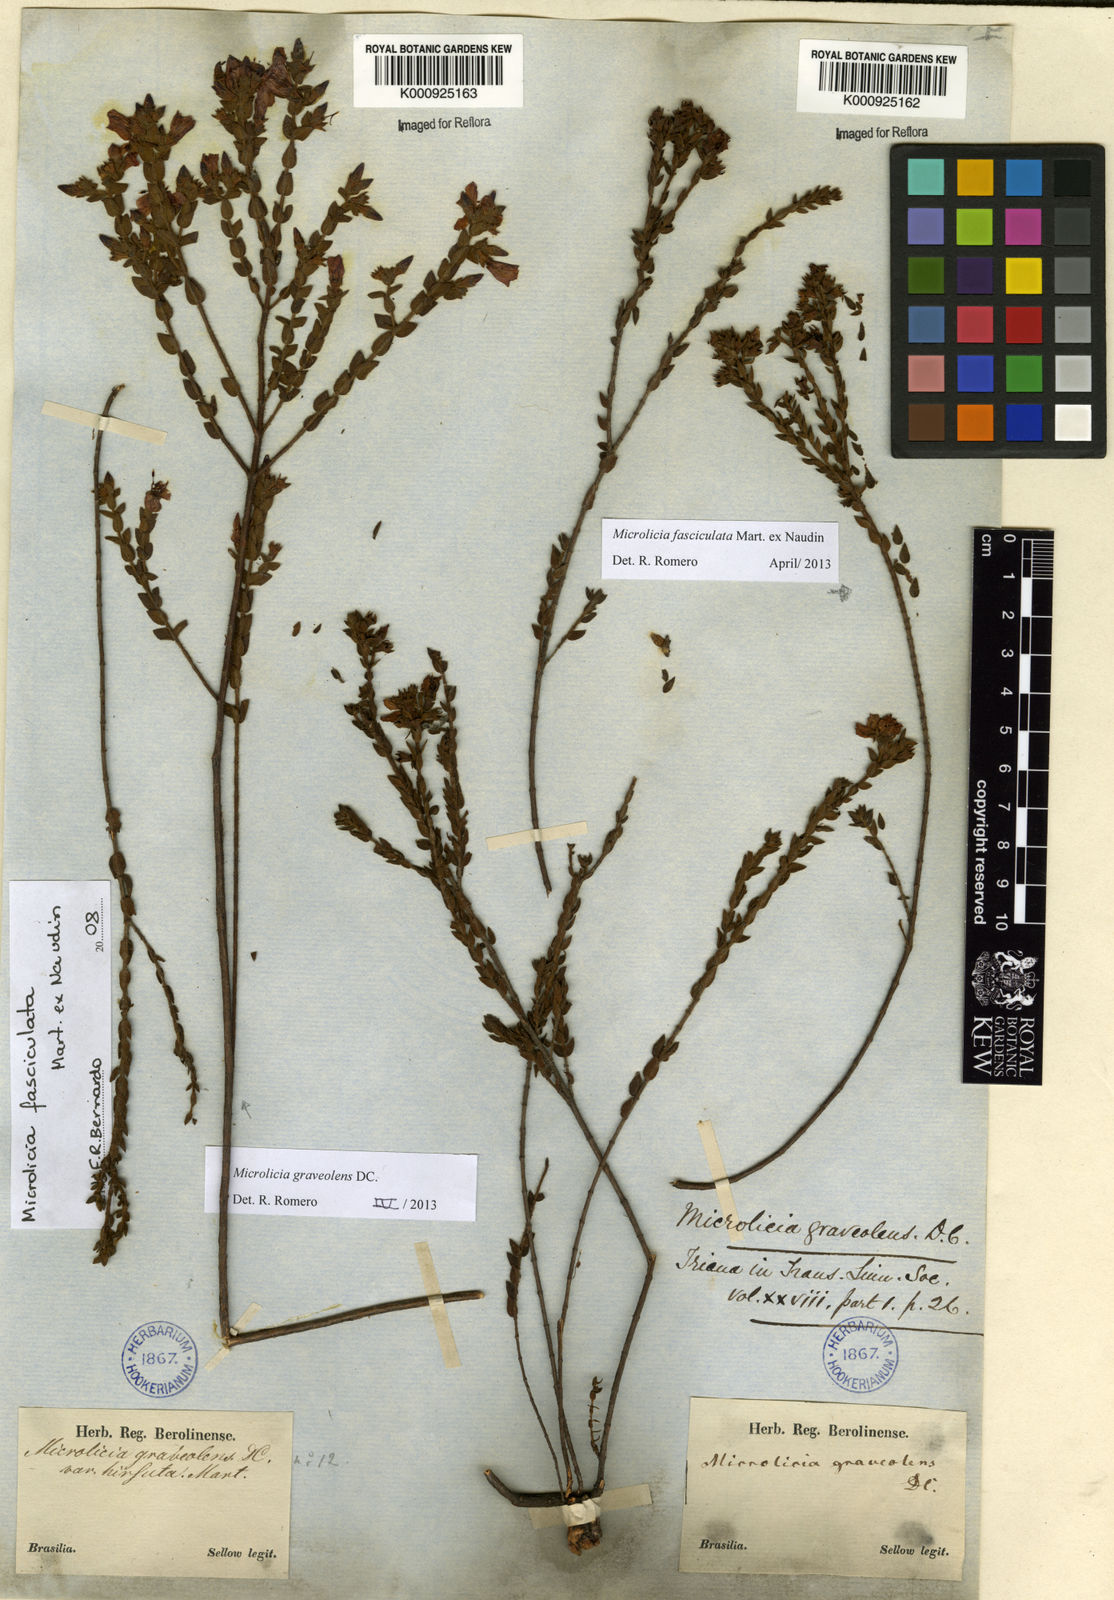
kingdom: Plantae
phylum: Tracheophyta
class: Magnoliopsida
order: Myrtales
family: Melastomataceae
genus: Microlicia
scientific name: Microlicia fasciculata
